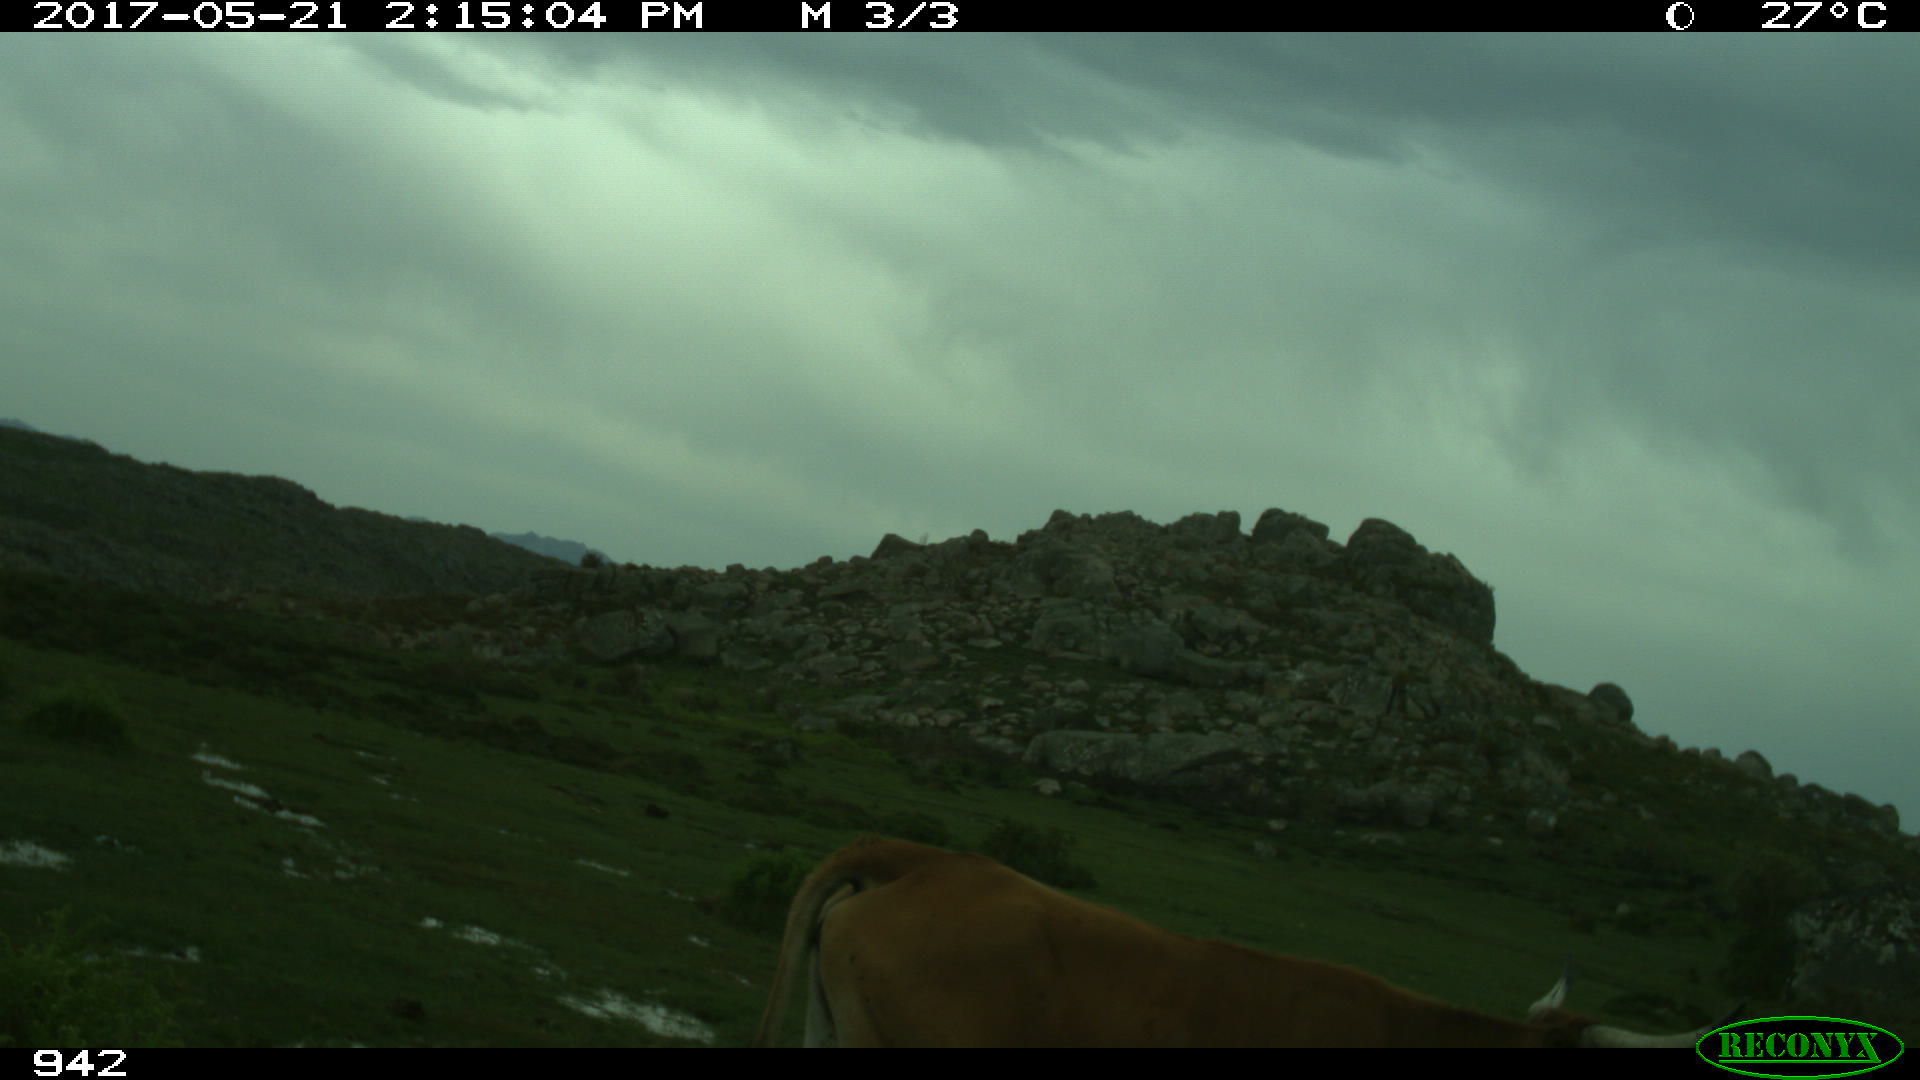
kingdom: Animalia
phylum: Chordata
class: Mammalia
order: Artiodactyla
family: Bovidae
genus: Bos
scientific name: Bos taurus
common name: Domesticated cattle
